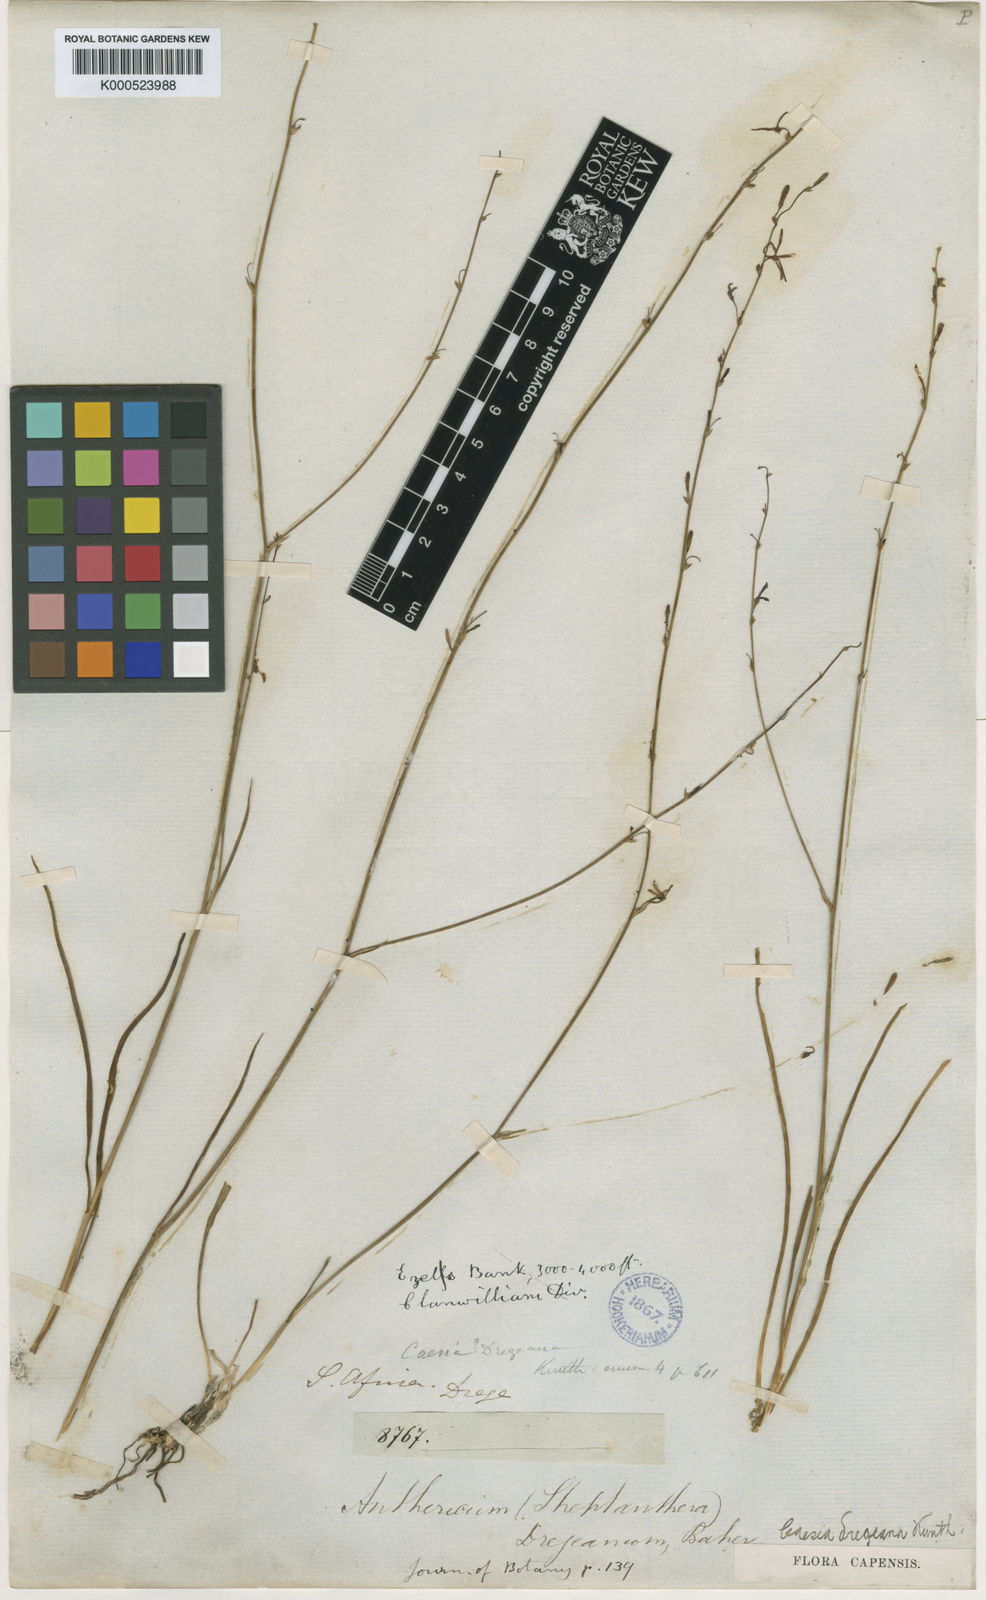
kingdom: Plantae
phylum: Tracheophyta
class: Liliopsida
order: Asparagales
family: Asphodelaceae
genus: Caesia
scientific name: Caesia contorta
